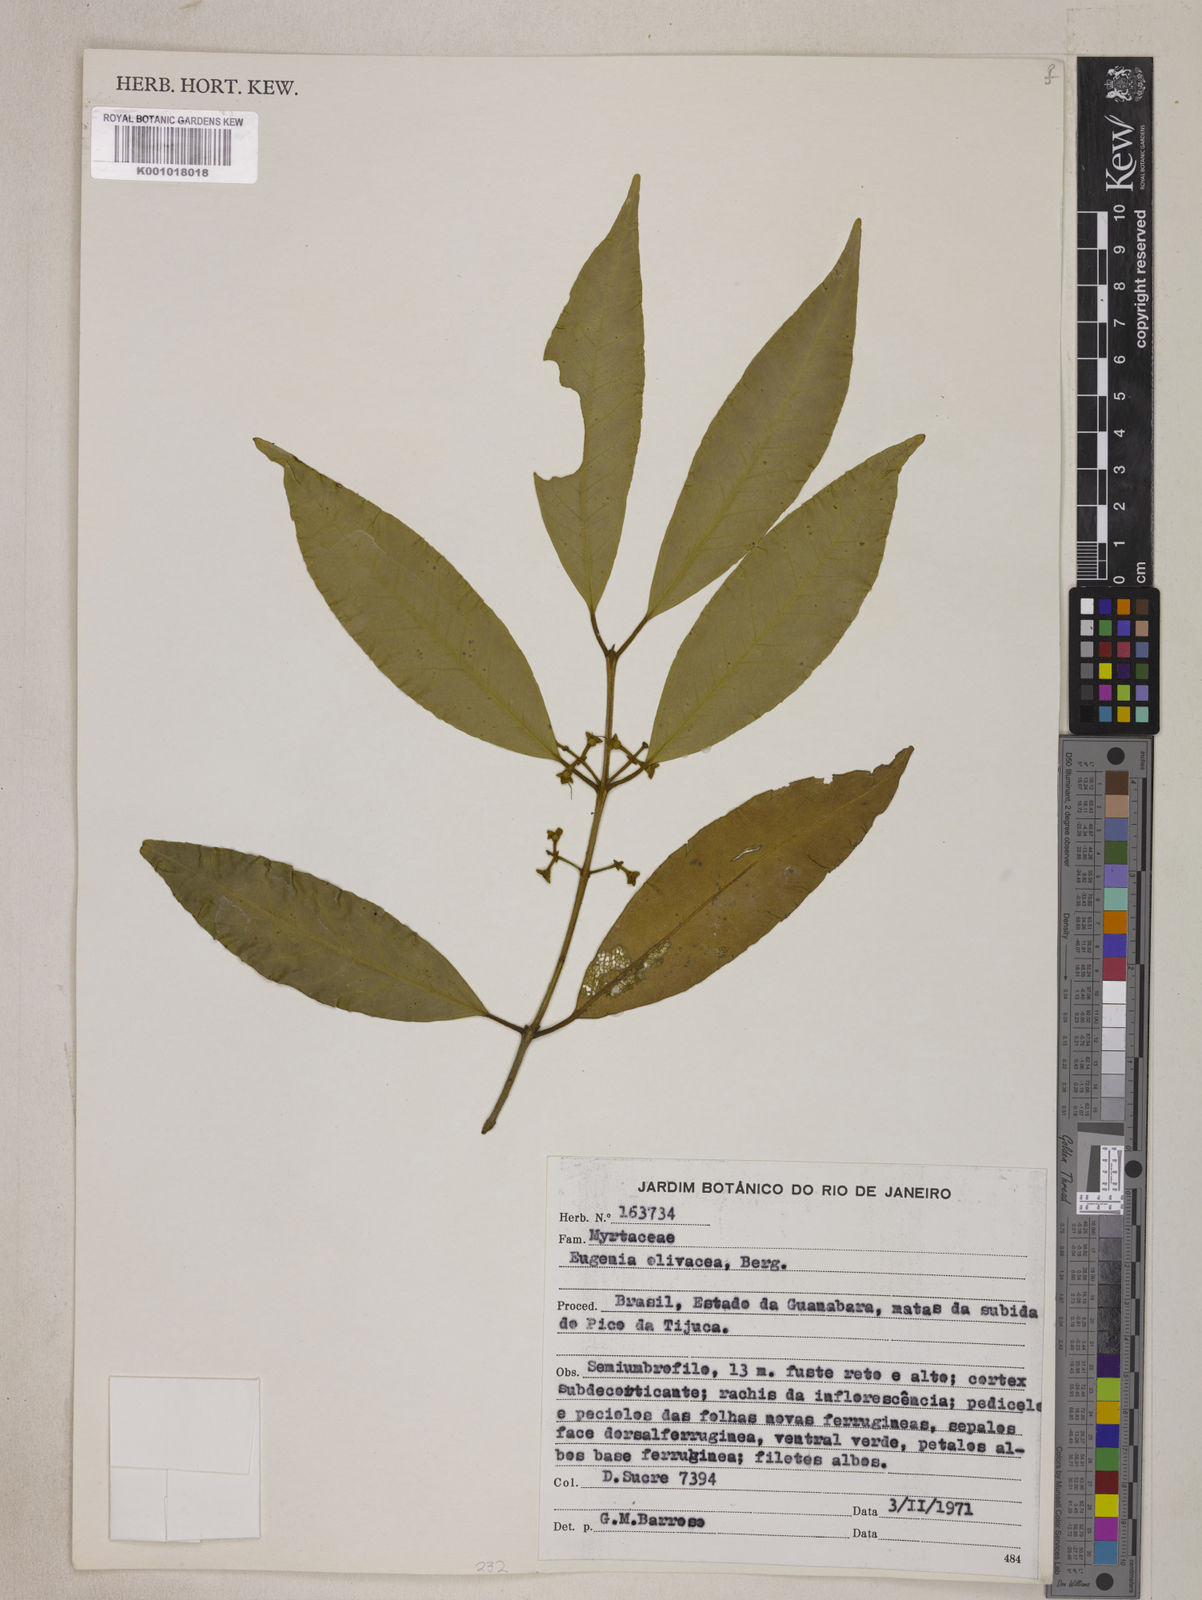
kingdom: Plantae
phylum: Tracheophyta
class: Magnoliopsida
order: Myrtales
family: Myrtaceae
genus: Eugenia
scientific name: Eugenia oblongata
